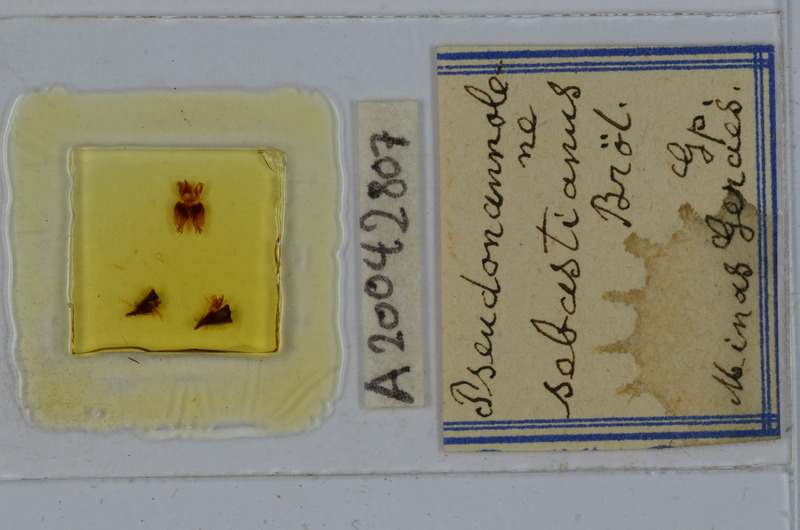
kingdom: Animalia
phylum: Arthropoda
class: Diplopoda
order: Spirostreptida
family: Pseudonannolenidae
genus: Pseudonannolene
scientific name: Pseudonannolene sebastianus
